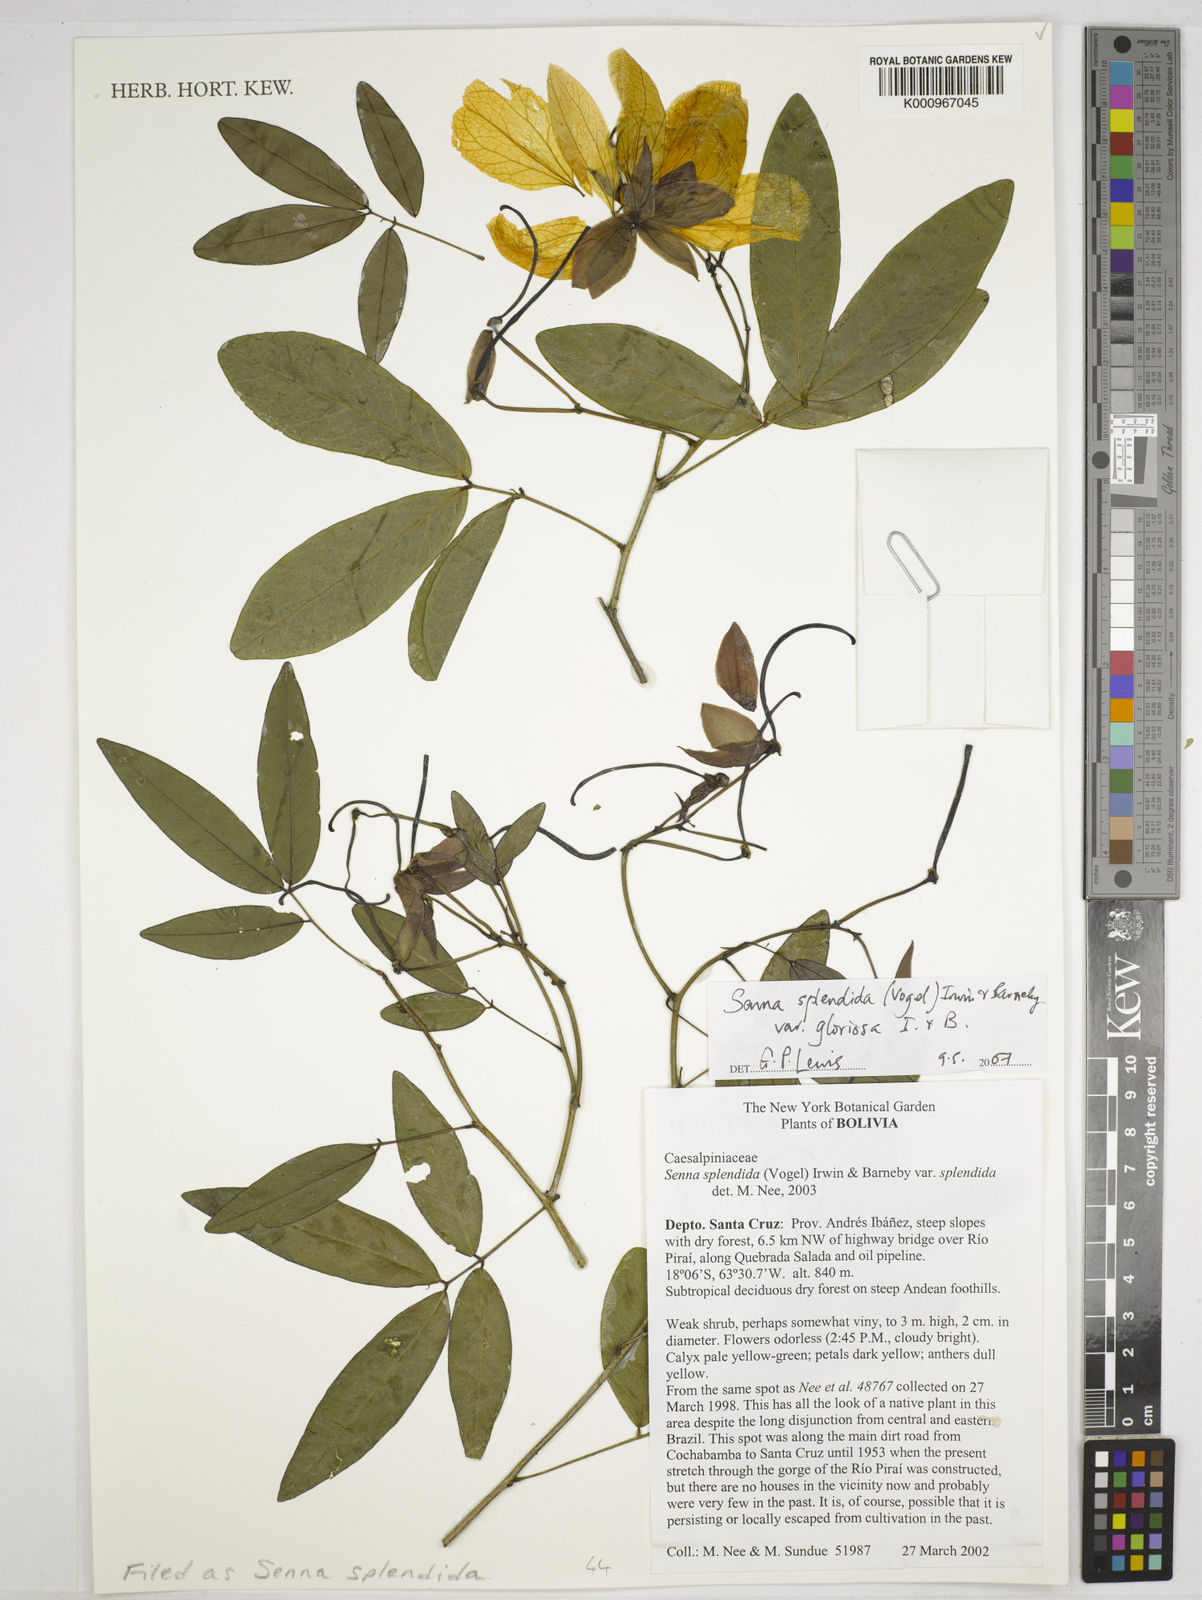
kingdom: Plantae
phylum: Tracheophyta
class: Magnoliopsida
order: Fabales
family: Fabaceae
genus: Senna
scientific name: Senna splendida
